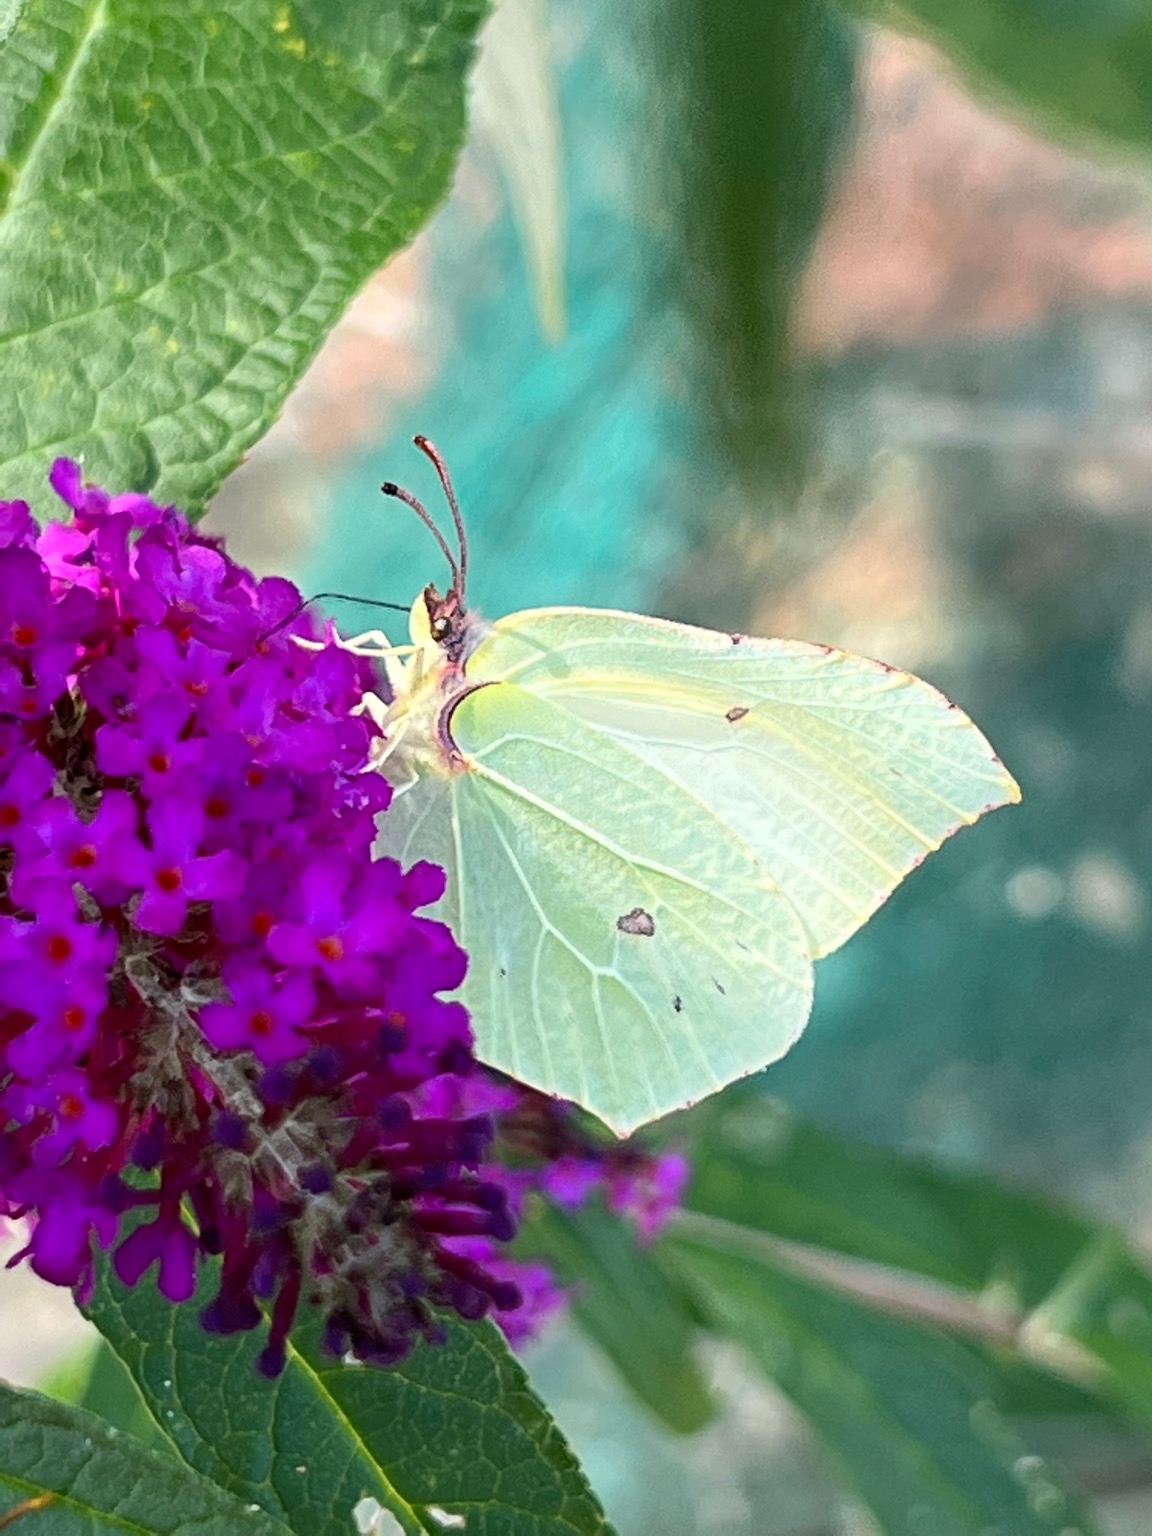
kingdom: Animalia
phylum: Arthropoda
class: Insecta
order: Lepidoptera
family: Pieridae
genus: Gonepteryx
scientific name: Gonepteryx rhamni
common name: Citronsommerfugl
